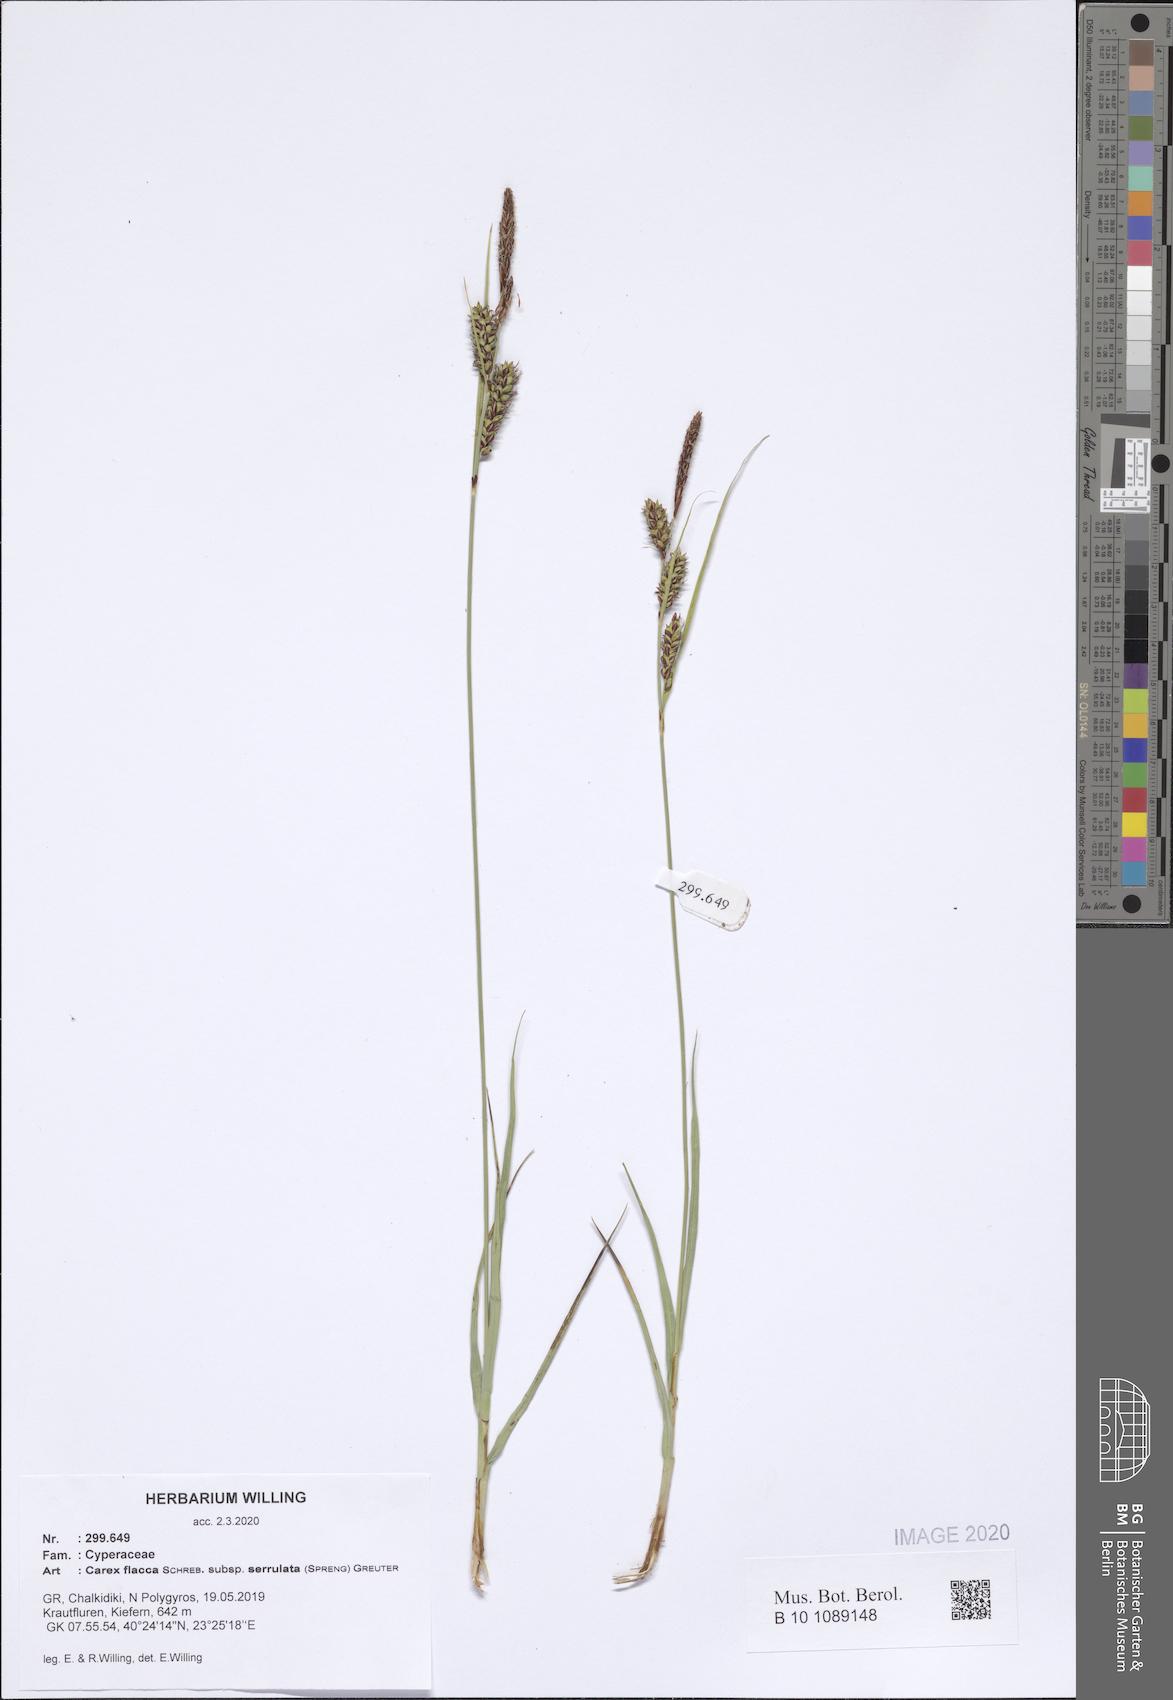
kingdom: Plantae
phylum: Tracheophyta
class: Liliopsida
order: Poales
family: Cyperaceae
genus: Carex
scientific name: Carex flacca
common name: Glaucous sedge
